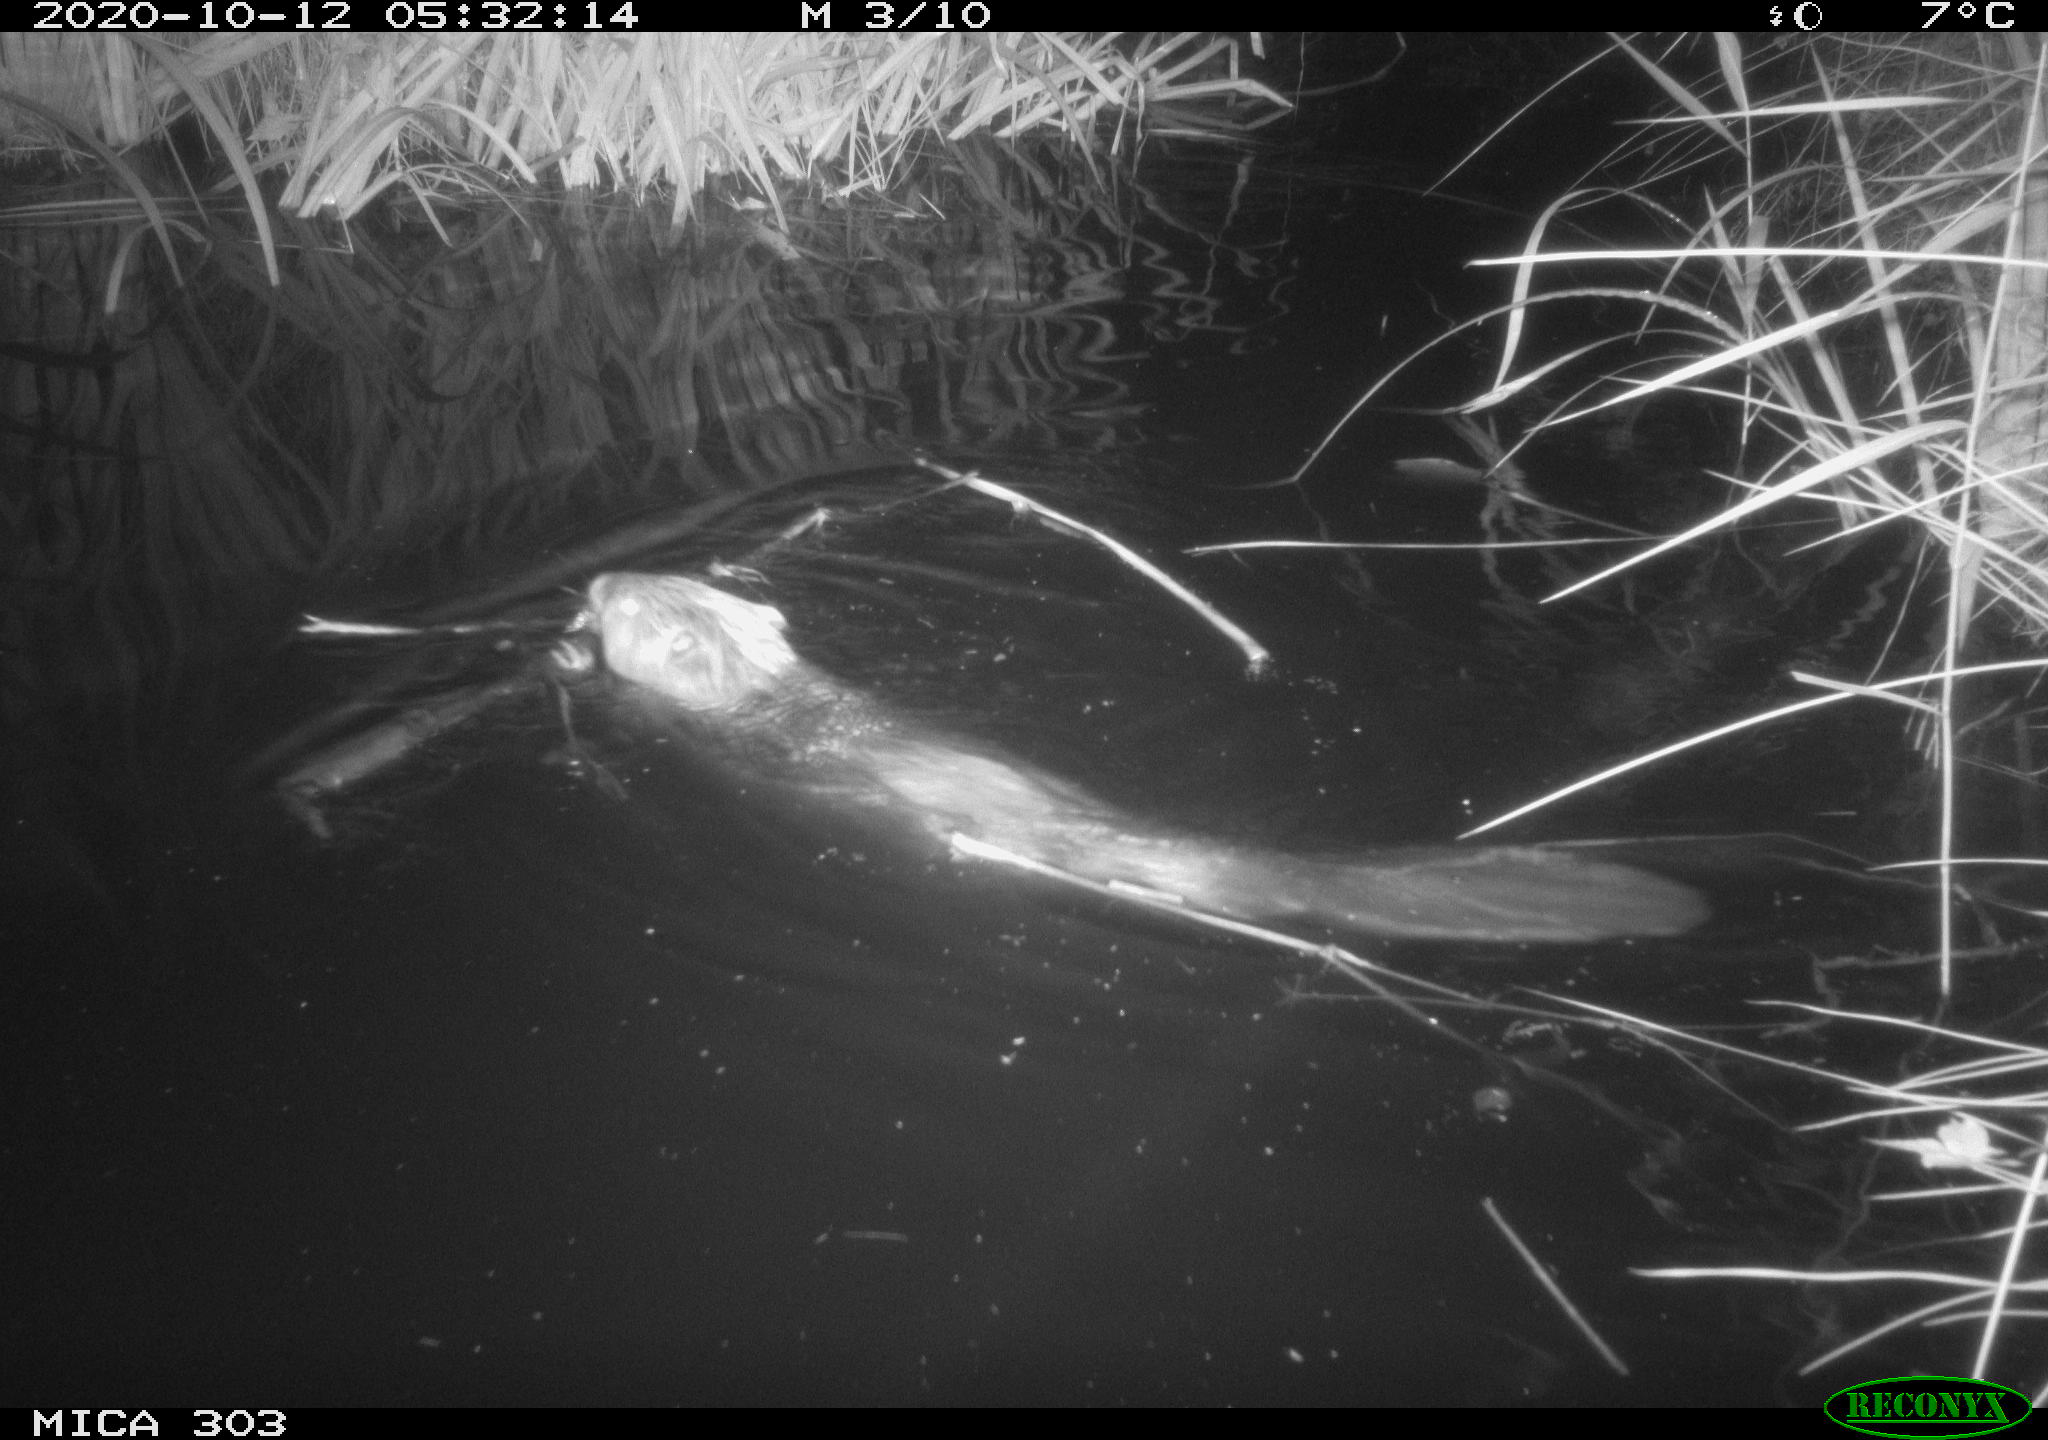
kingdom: Animalia
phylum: Chordata
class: Mammalia
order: Rodentia
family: Castoridae
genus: Castor
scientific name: Castor fiber
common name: Eurasian beaver
